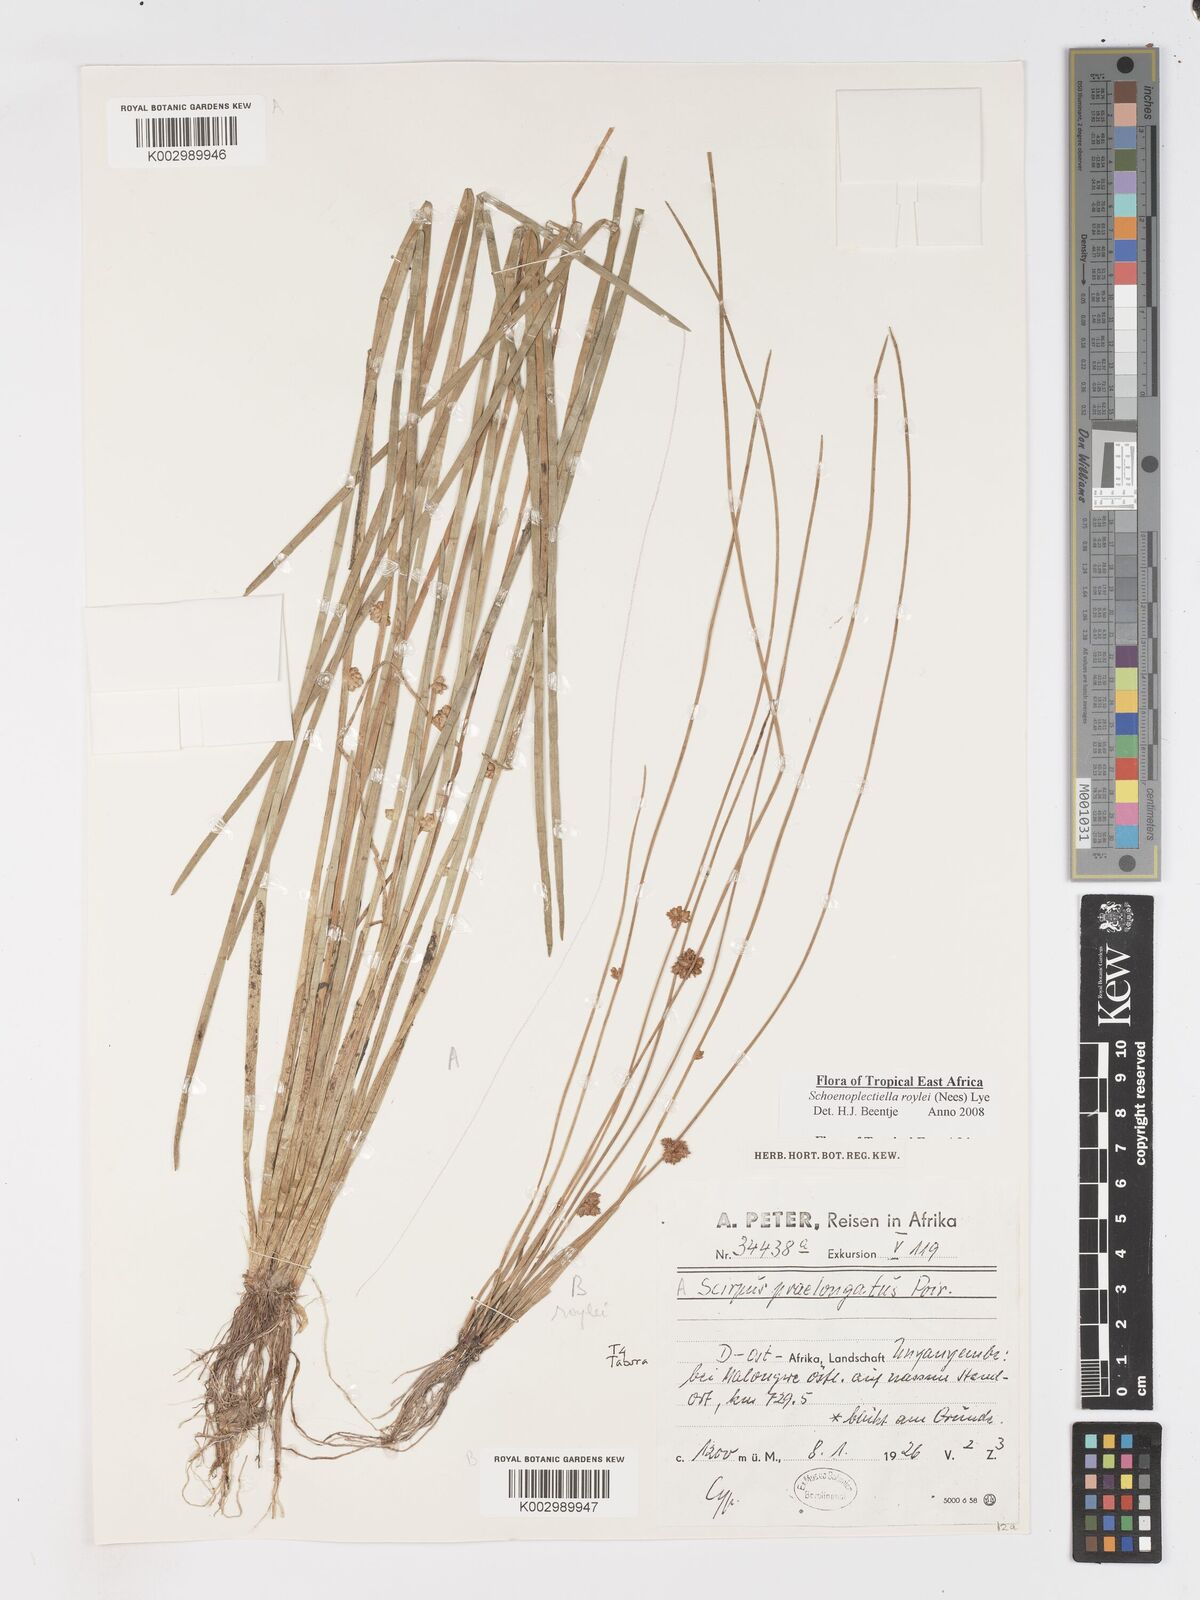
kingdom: Plantae
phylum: Tracheophyta
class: Liliopsida
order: Poales
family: Cyperaceae
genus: Schoenoplectiella
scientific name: Schoenoplectiella roylei
